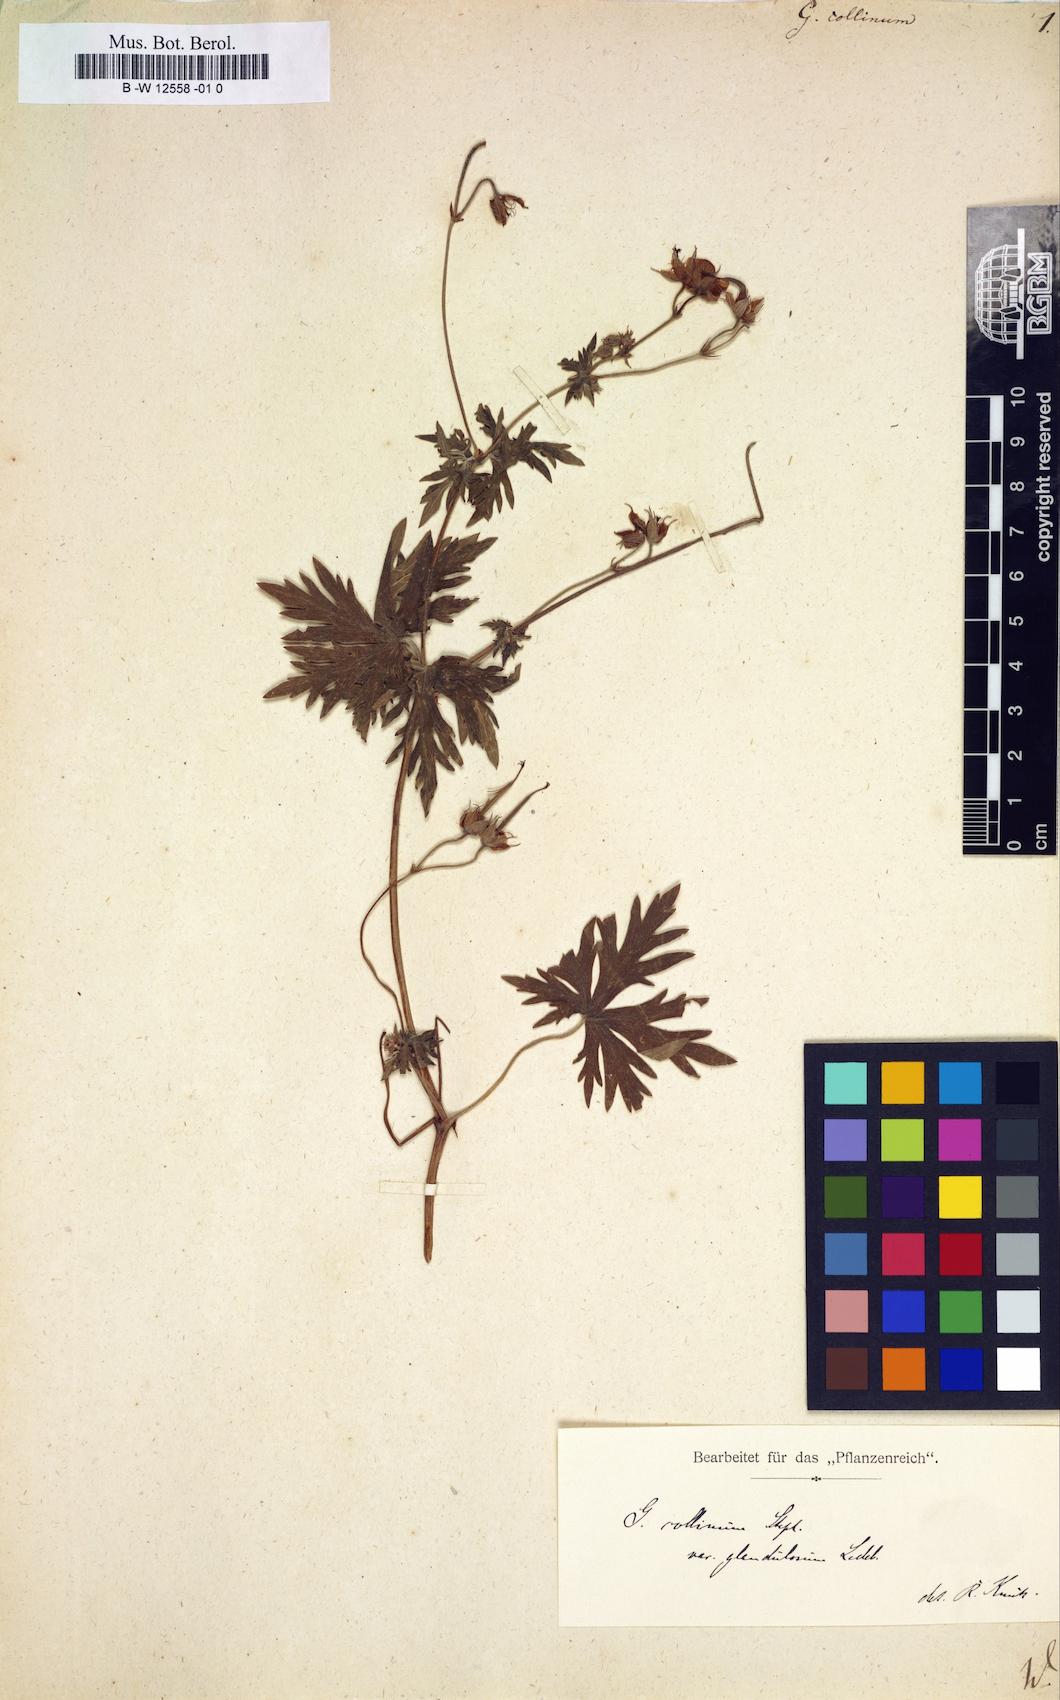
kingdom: Plantae
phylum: Tracheophyta
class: Magnoliopsida
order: Geraniales
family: Geraniaceae
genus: Geranium
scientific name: Geranium collinum
